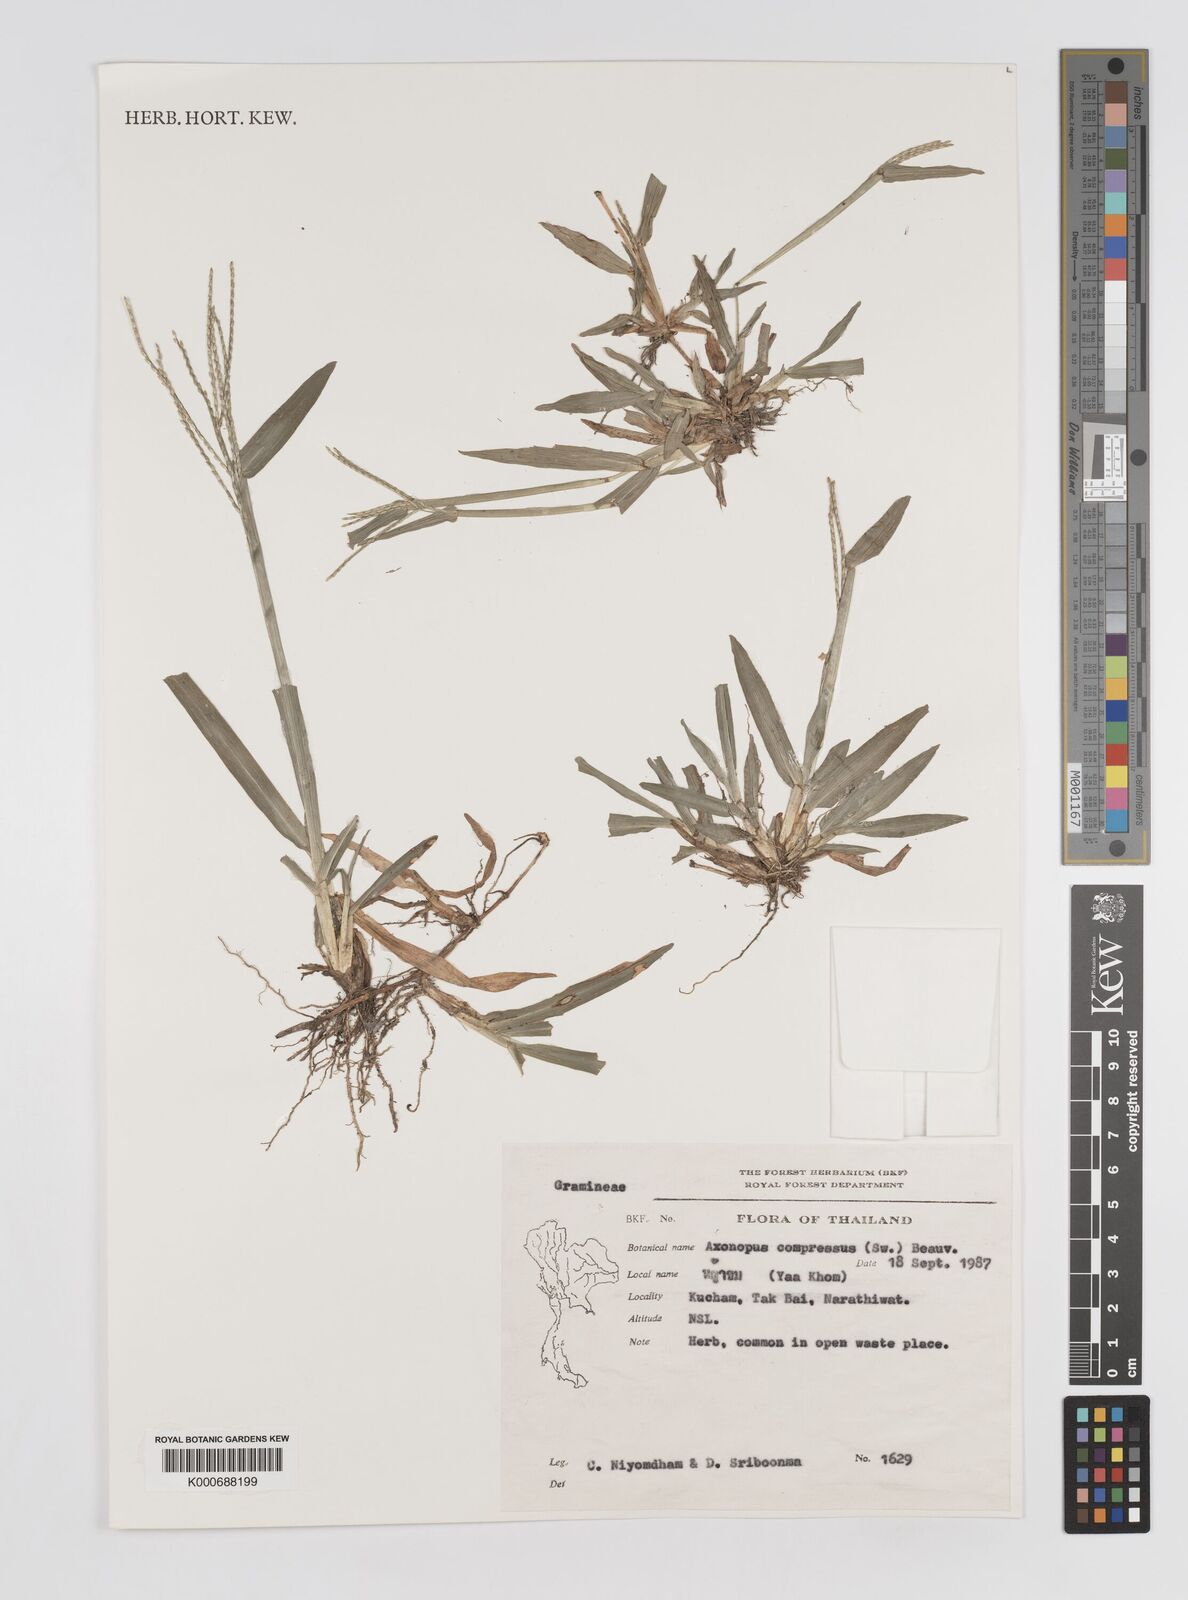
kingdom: Plantae
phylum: Tracheophyta
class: Liliopsida
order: Poales
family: Poaceae
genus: Axonopus
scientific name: Axonopus compressus
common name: American carpet grass
